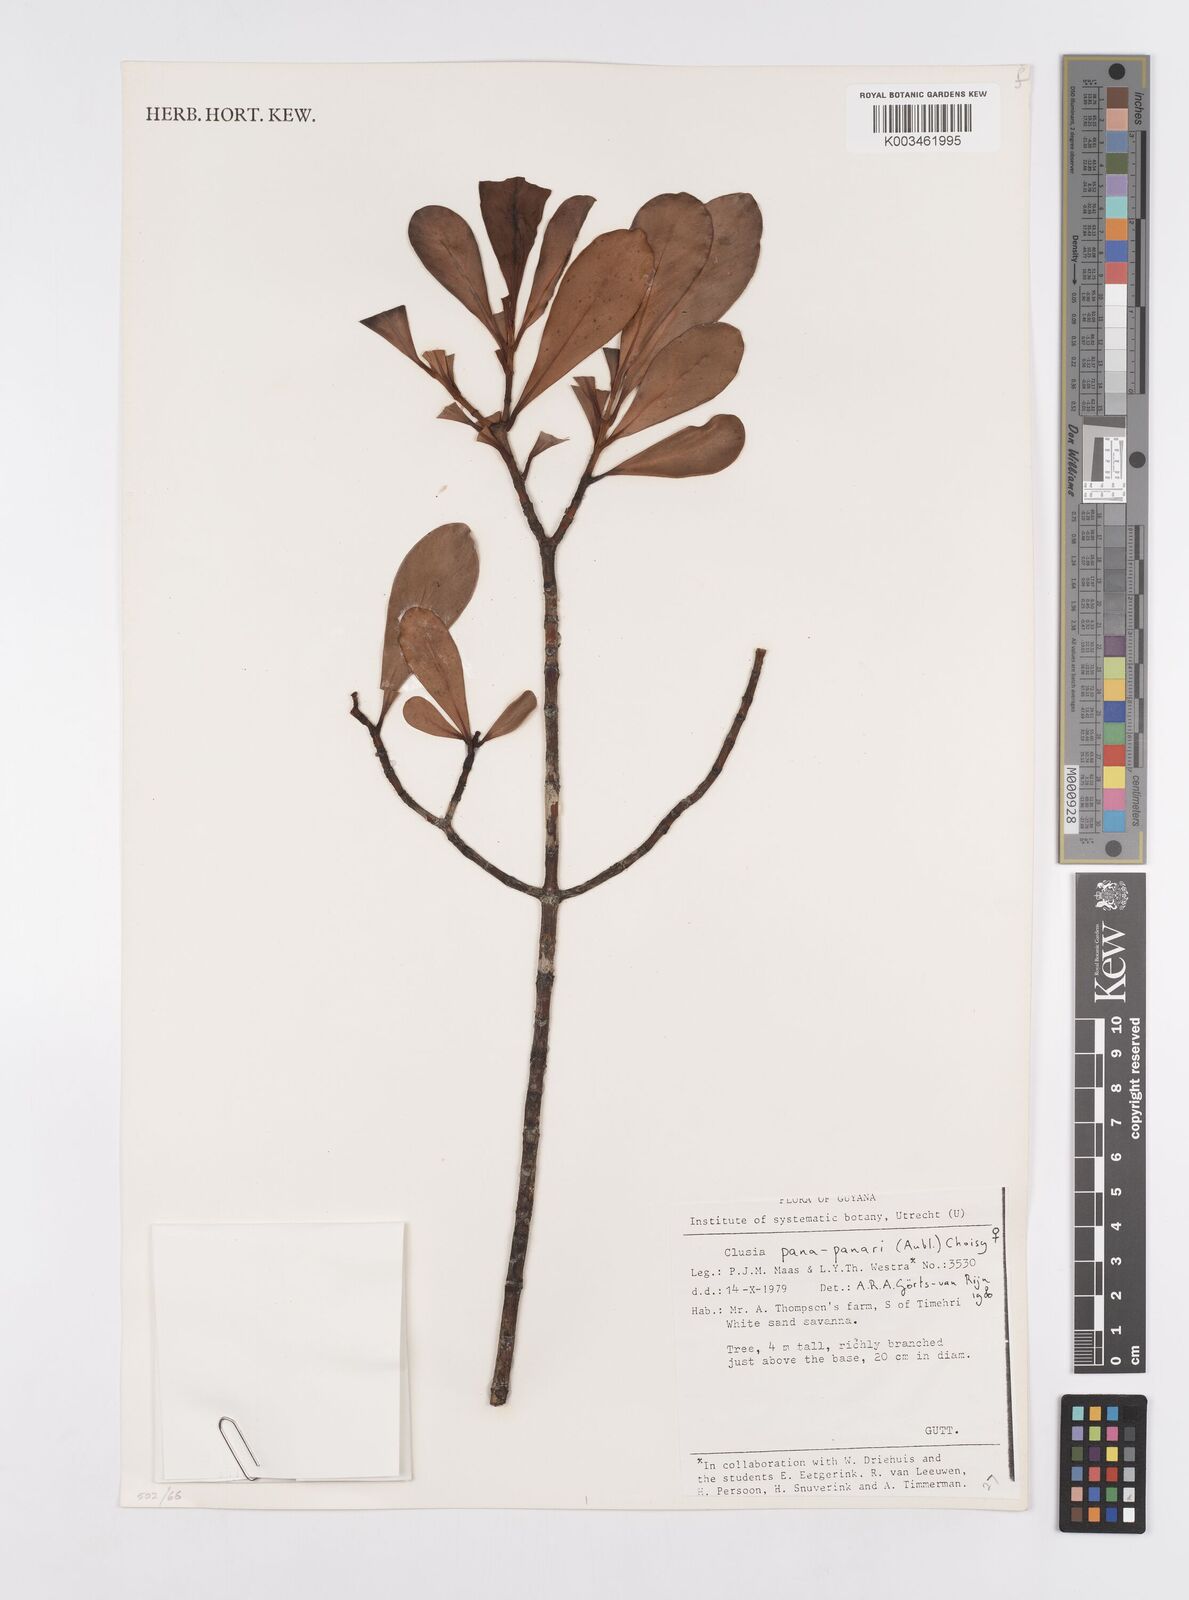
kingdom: Plantae
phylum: Tracheophyta
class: Magnoliopsida
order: Malpighiales
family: Clusiaceae
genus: Clusia
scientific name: Clusia panapanari
